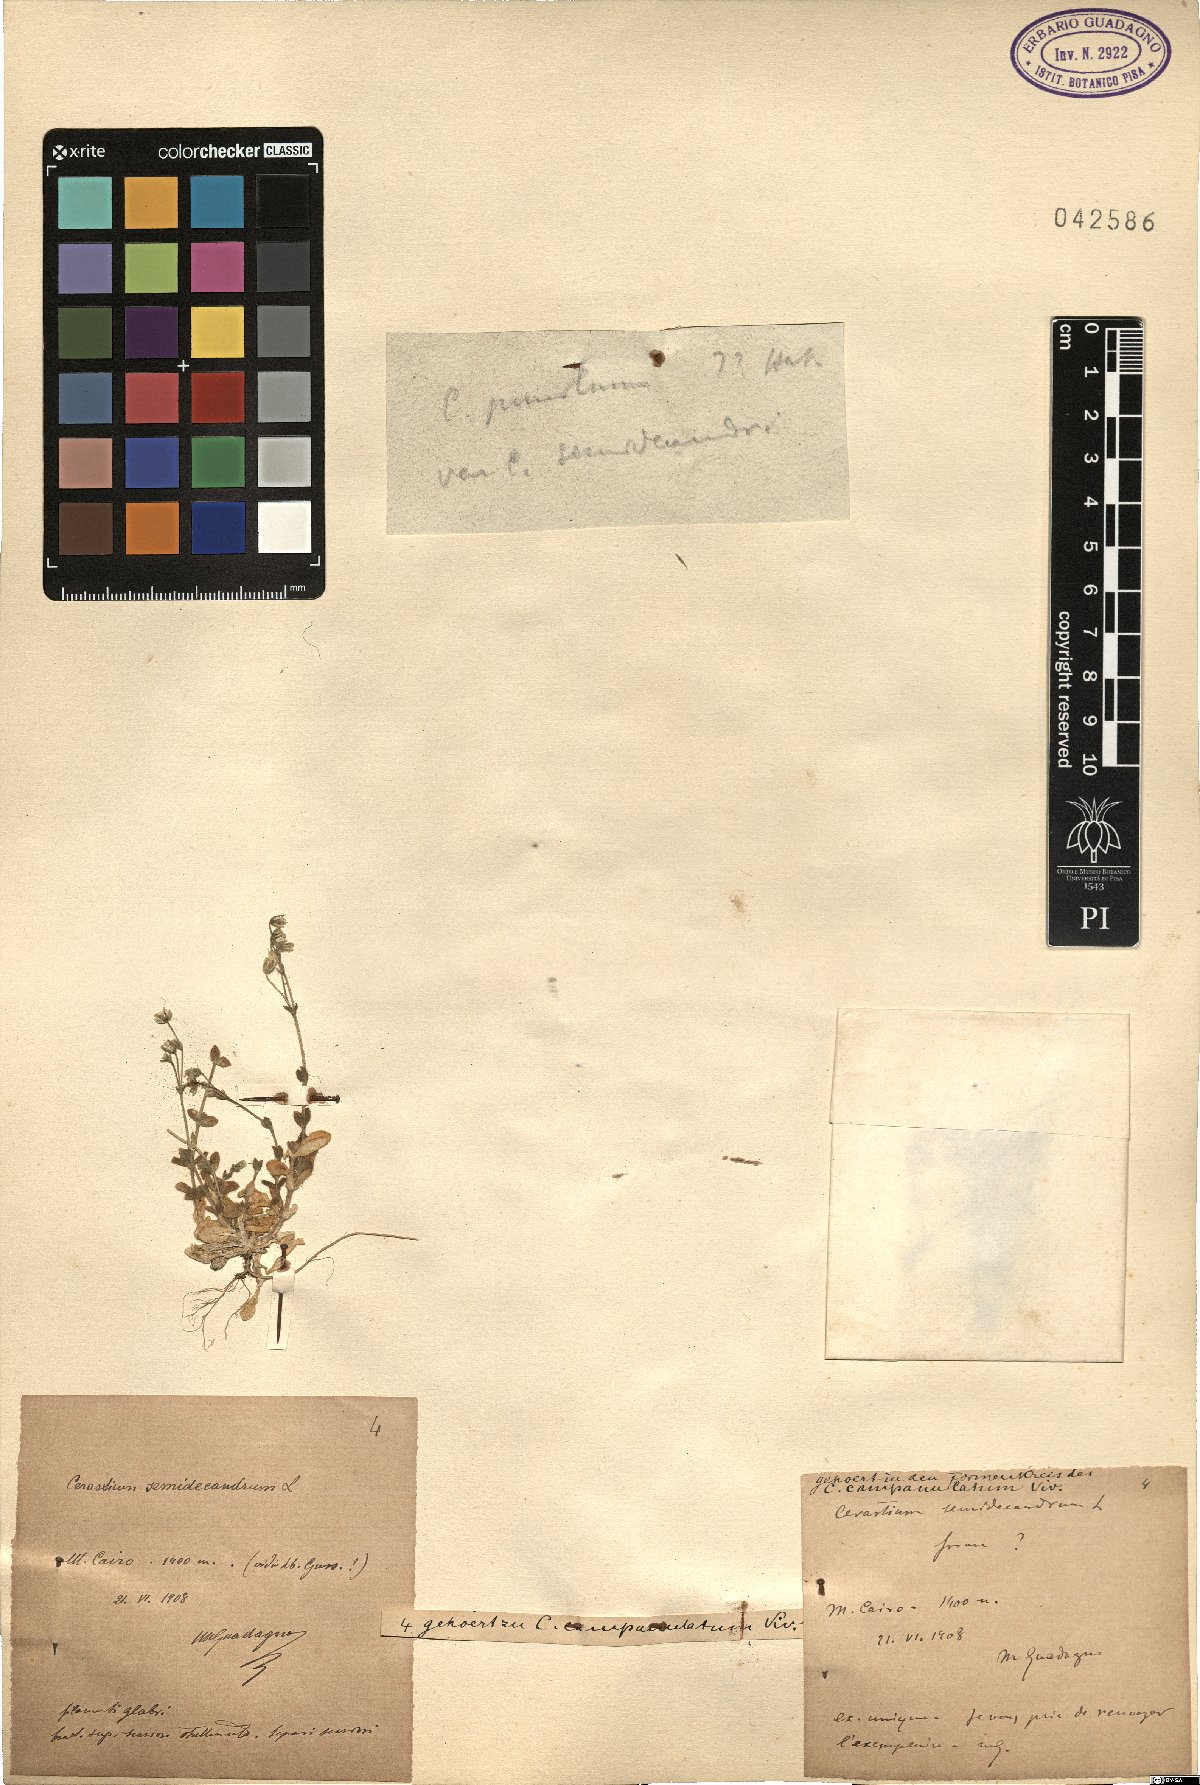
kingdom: Plantae
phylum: Tracheophyta
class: Magnoliopsida
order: Caryophyllales
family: Caryophyllaceae
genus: Cerastium
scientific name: Cerastium ligusticum
